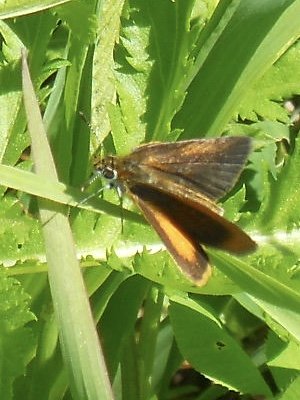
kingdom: Animalia
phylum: Arthropoda
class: Insecta
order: Lepidoptera
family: Hesperiidae
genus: Ancyloxypha
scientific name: Ancyloxypha numitor
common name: Least Skipper
